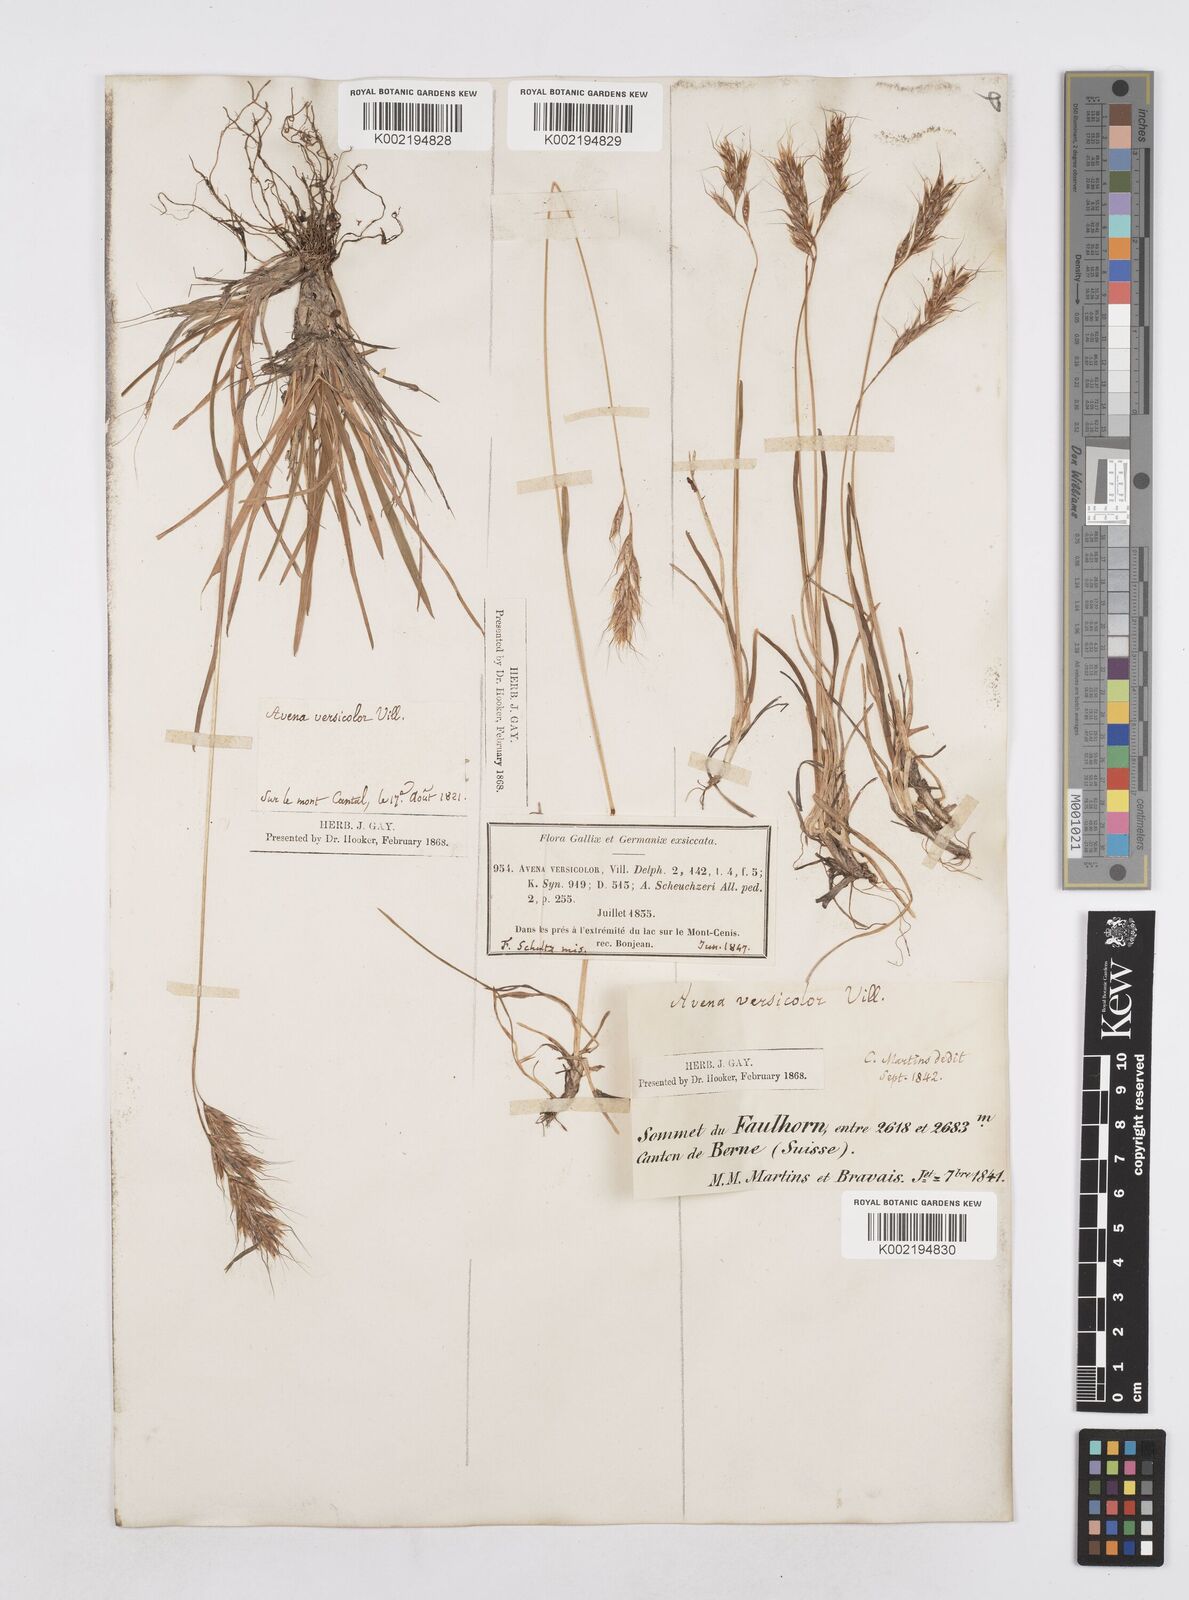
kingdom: Plantae
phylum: Tracheophyta
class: Liliopsida
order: Poales
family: Poaceae
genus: Helictotrichon
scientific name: Helictotrichon
